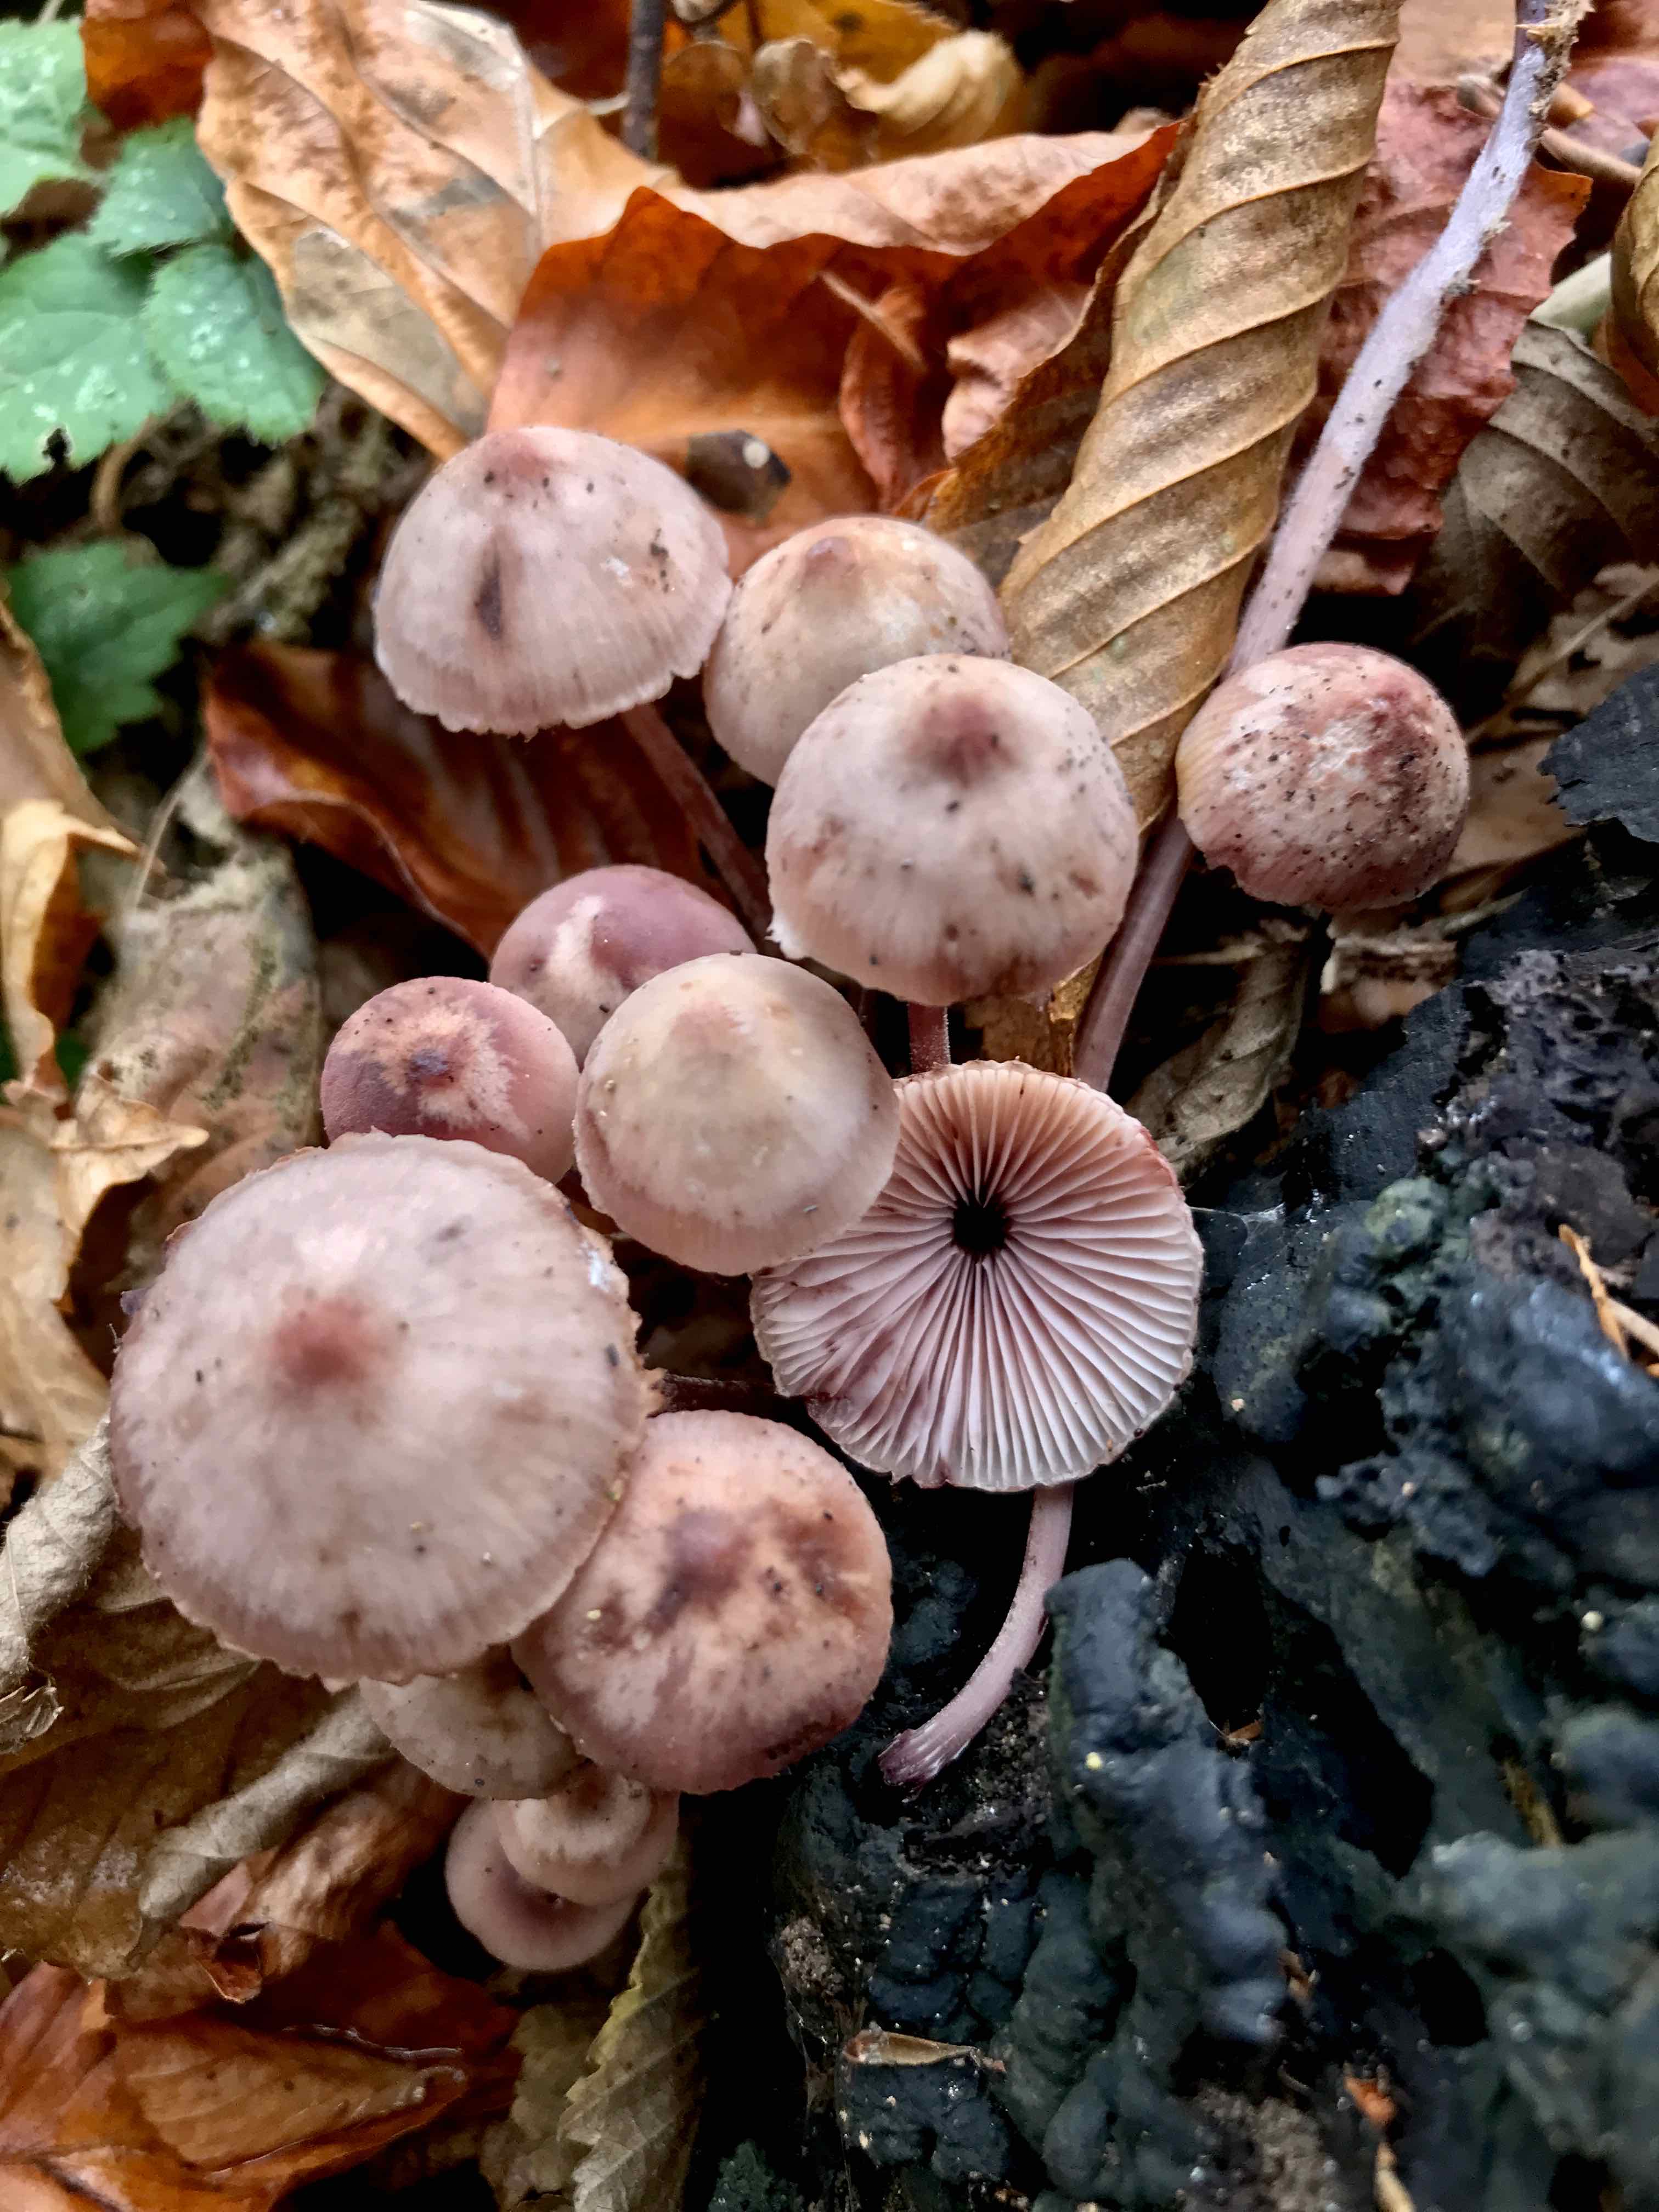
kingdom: Fungi
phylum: Basidiomycota
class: Agaricomycetes
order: Agaricales
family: Mycenaceae
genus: Mycena
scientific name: Mycena haematopus
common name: blødende huesvamp
